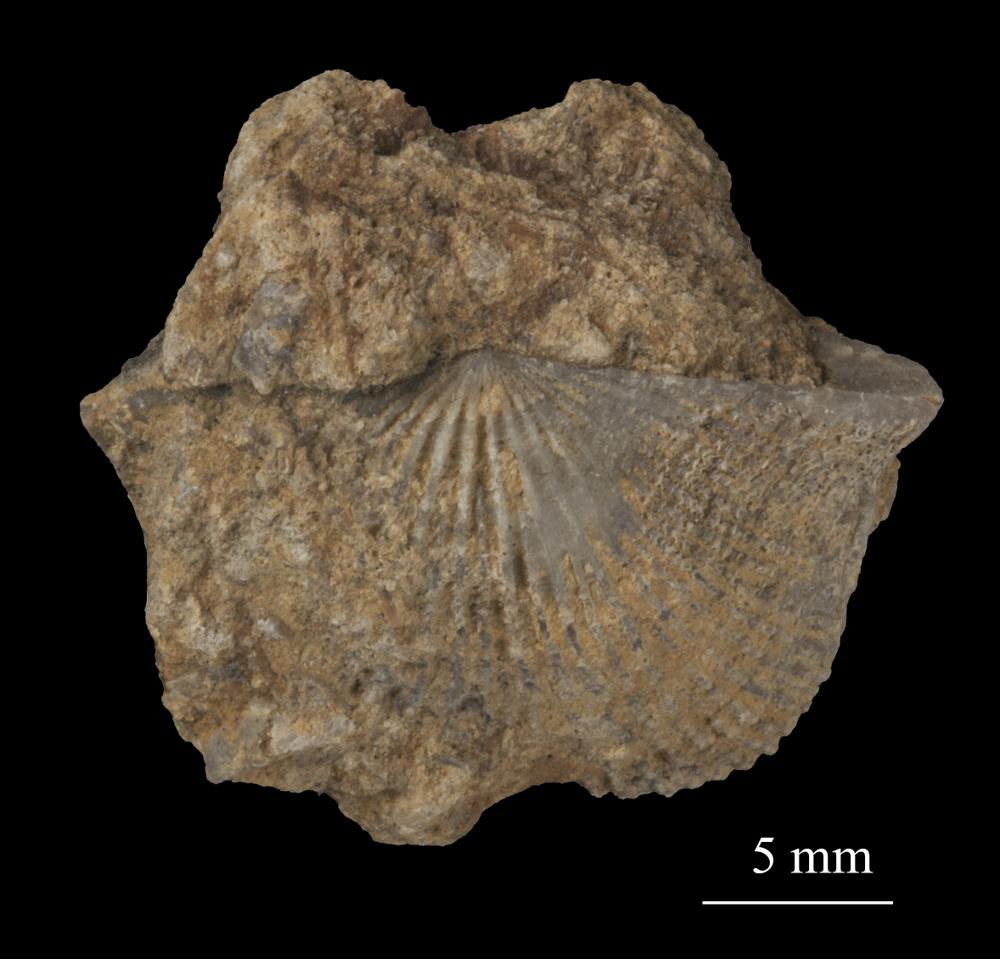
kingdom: Animalia
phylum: Brachiopoda
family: Gonambonitidae
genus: Estlandia
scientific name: Estlandia Orthisina marginata
